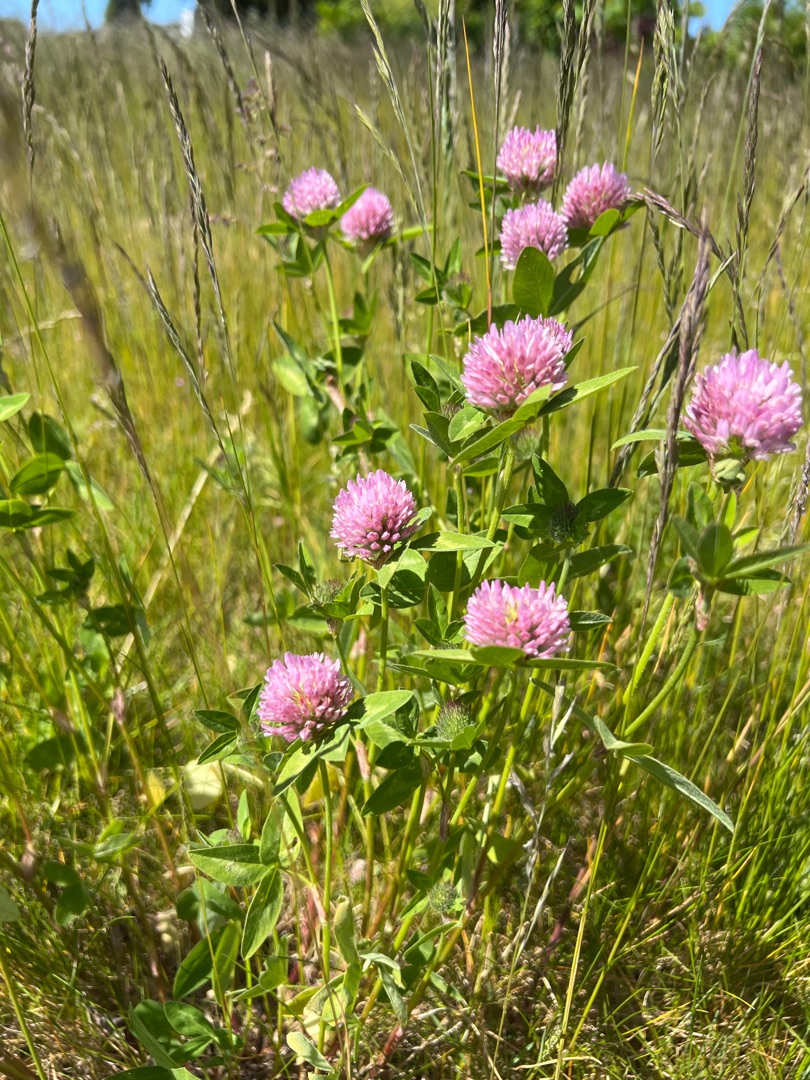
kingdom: Plantae
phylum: Tracheophyta
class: Magnoliopsida
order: Fabales
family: Fabaceae
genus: Trifolium
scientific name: Trifolium pratense
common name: Rød-kløver
